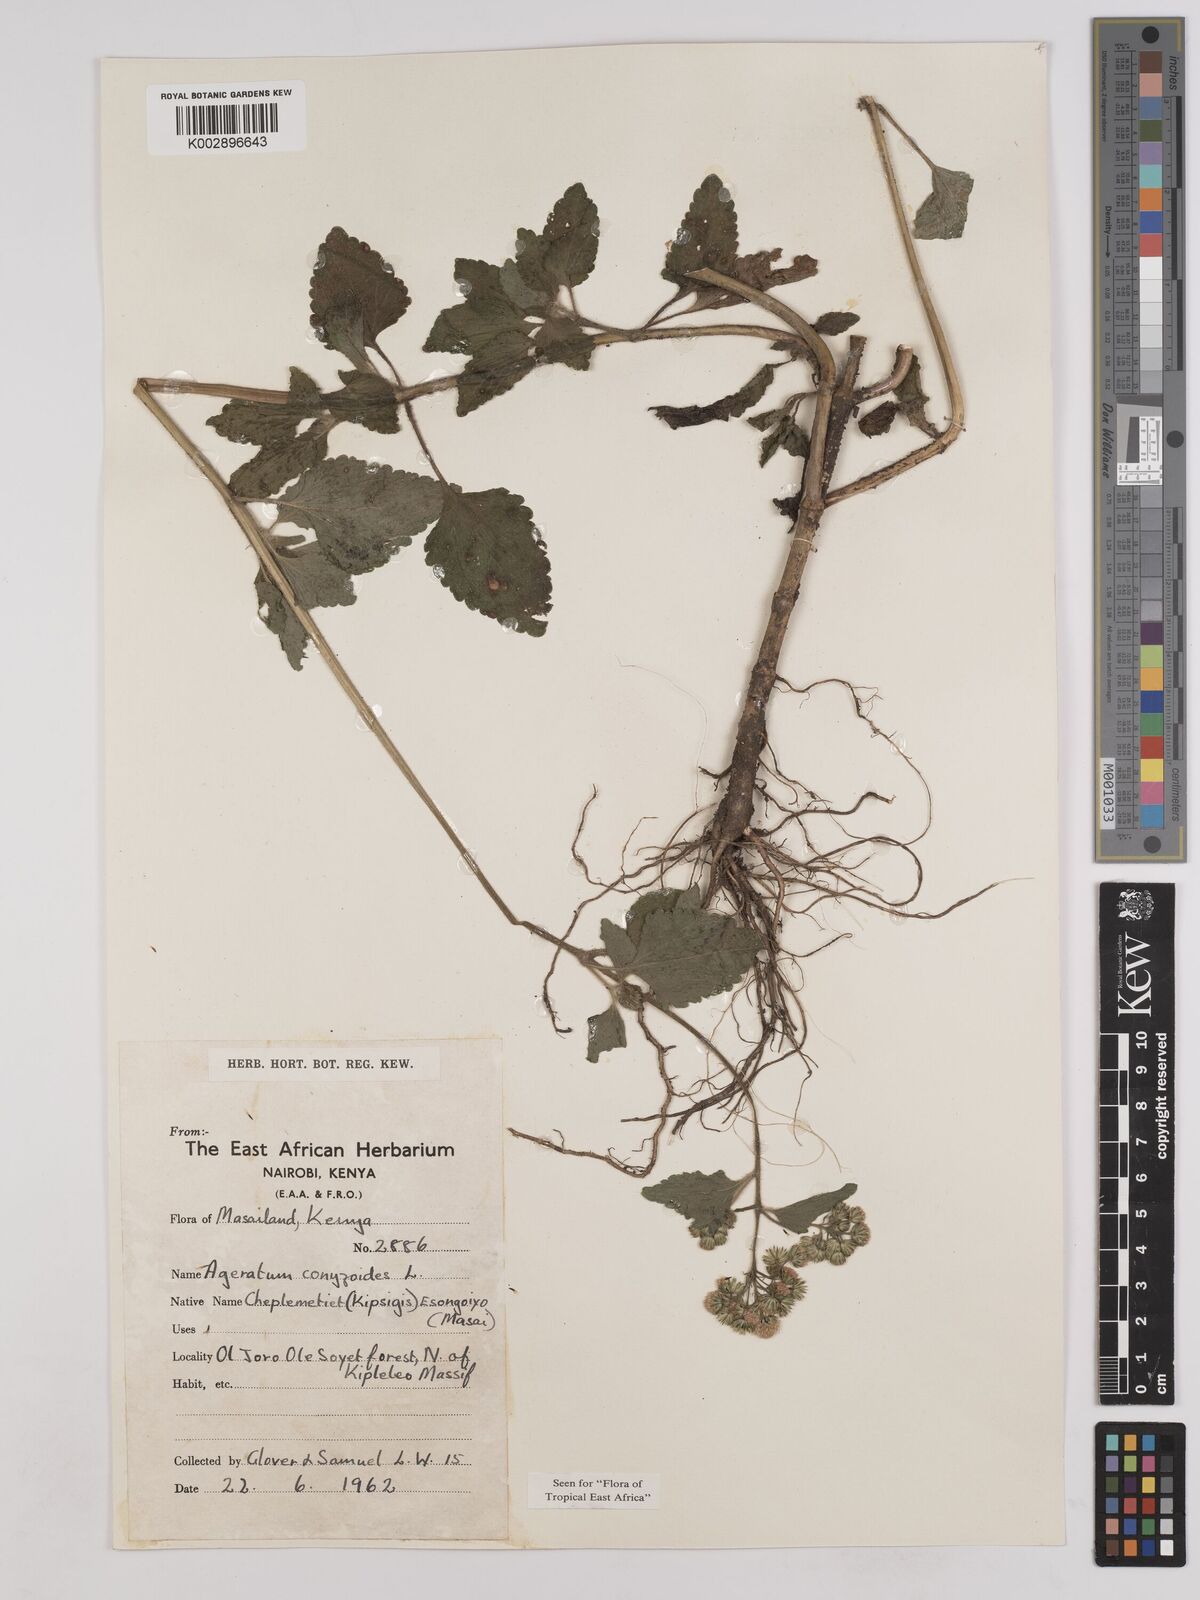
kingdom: Plantae
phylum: Tracheophyta
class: Magnoliopsida
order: Asterales
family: Asteraceae
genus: Ageratum
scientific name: Ageratum conyzoides
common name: Tropical whiteweed
